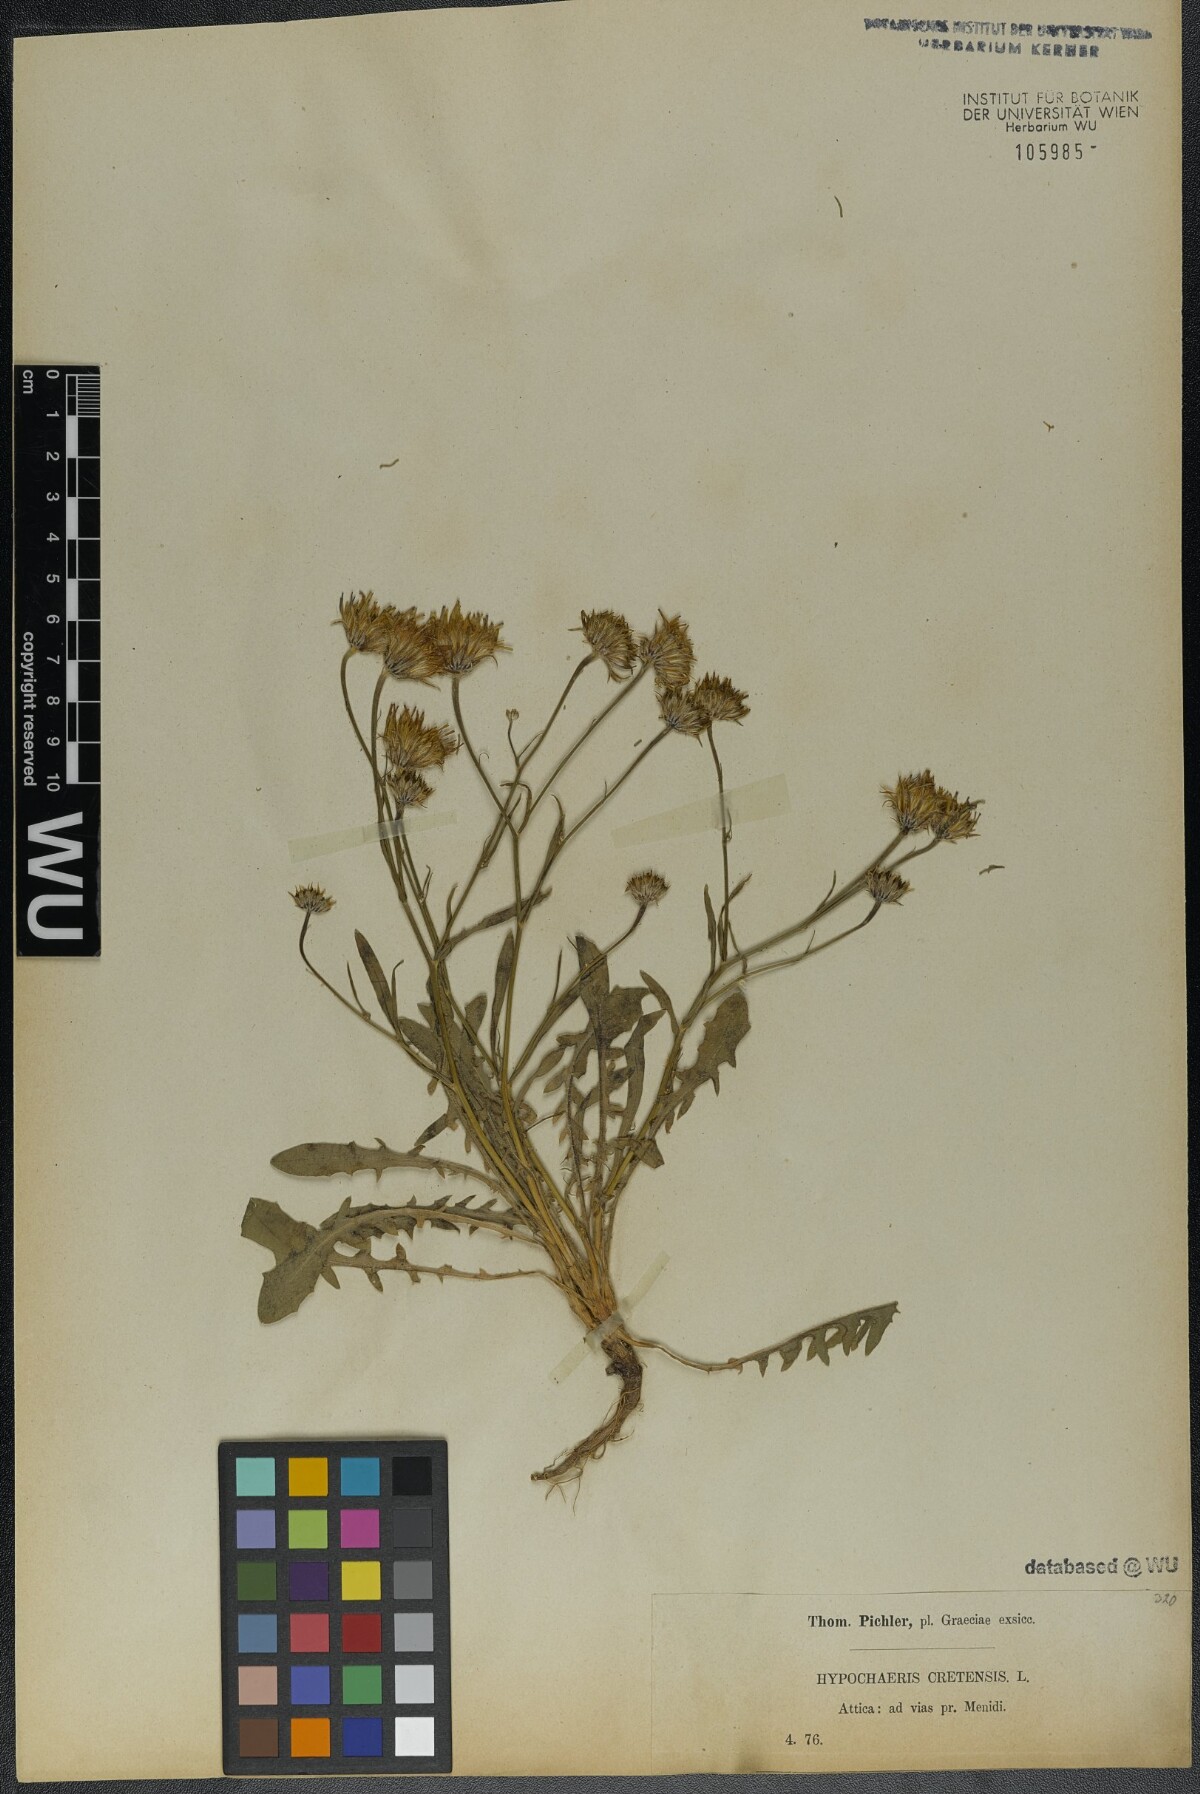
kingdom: Plantae
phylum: Tracheophyta
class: Magnoliopsida
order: Asterales
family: Asteraceae
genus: Hypochaeris
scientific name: Hypochaeris cretensis
